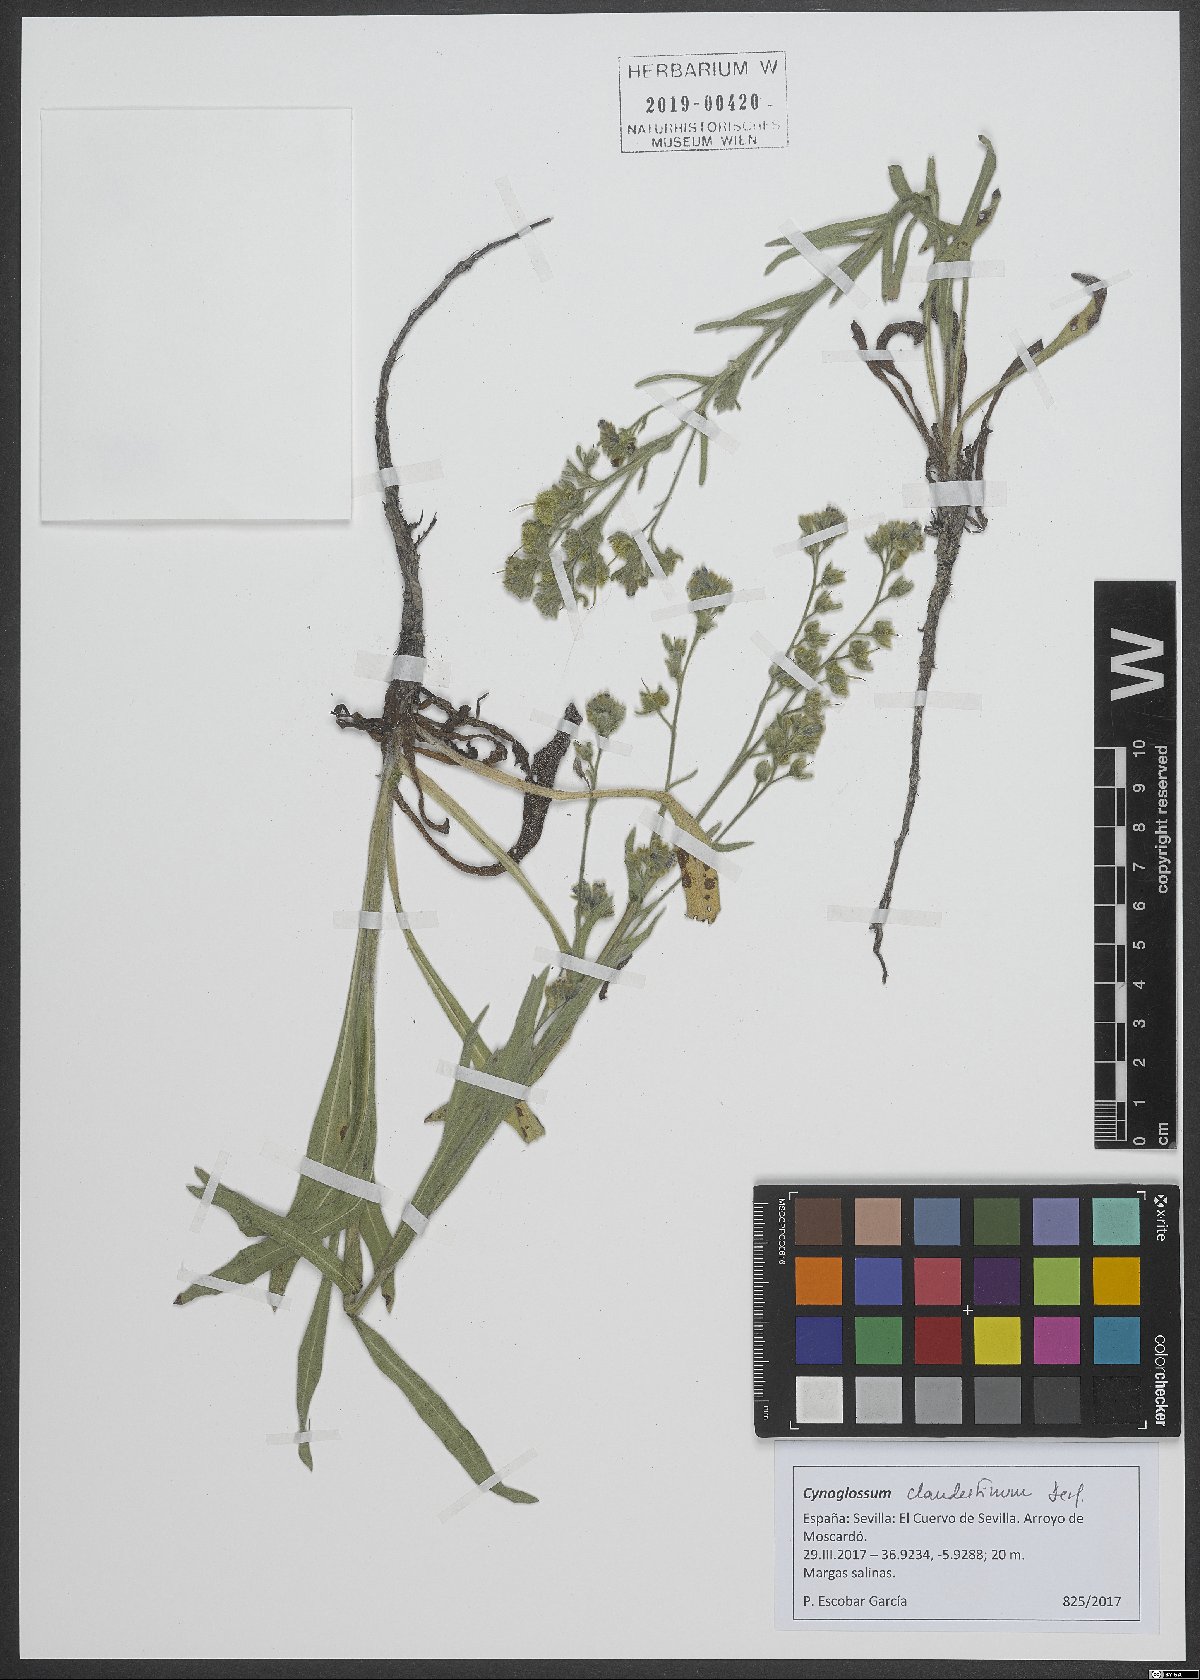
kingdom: Plantae
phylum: Tracheophyta
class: Magnoliopsida
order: Boraginales
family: Boraginaceae
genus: Cynoglossum
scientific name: Cynoglossum clandestinum
